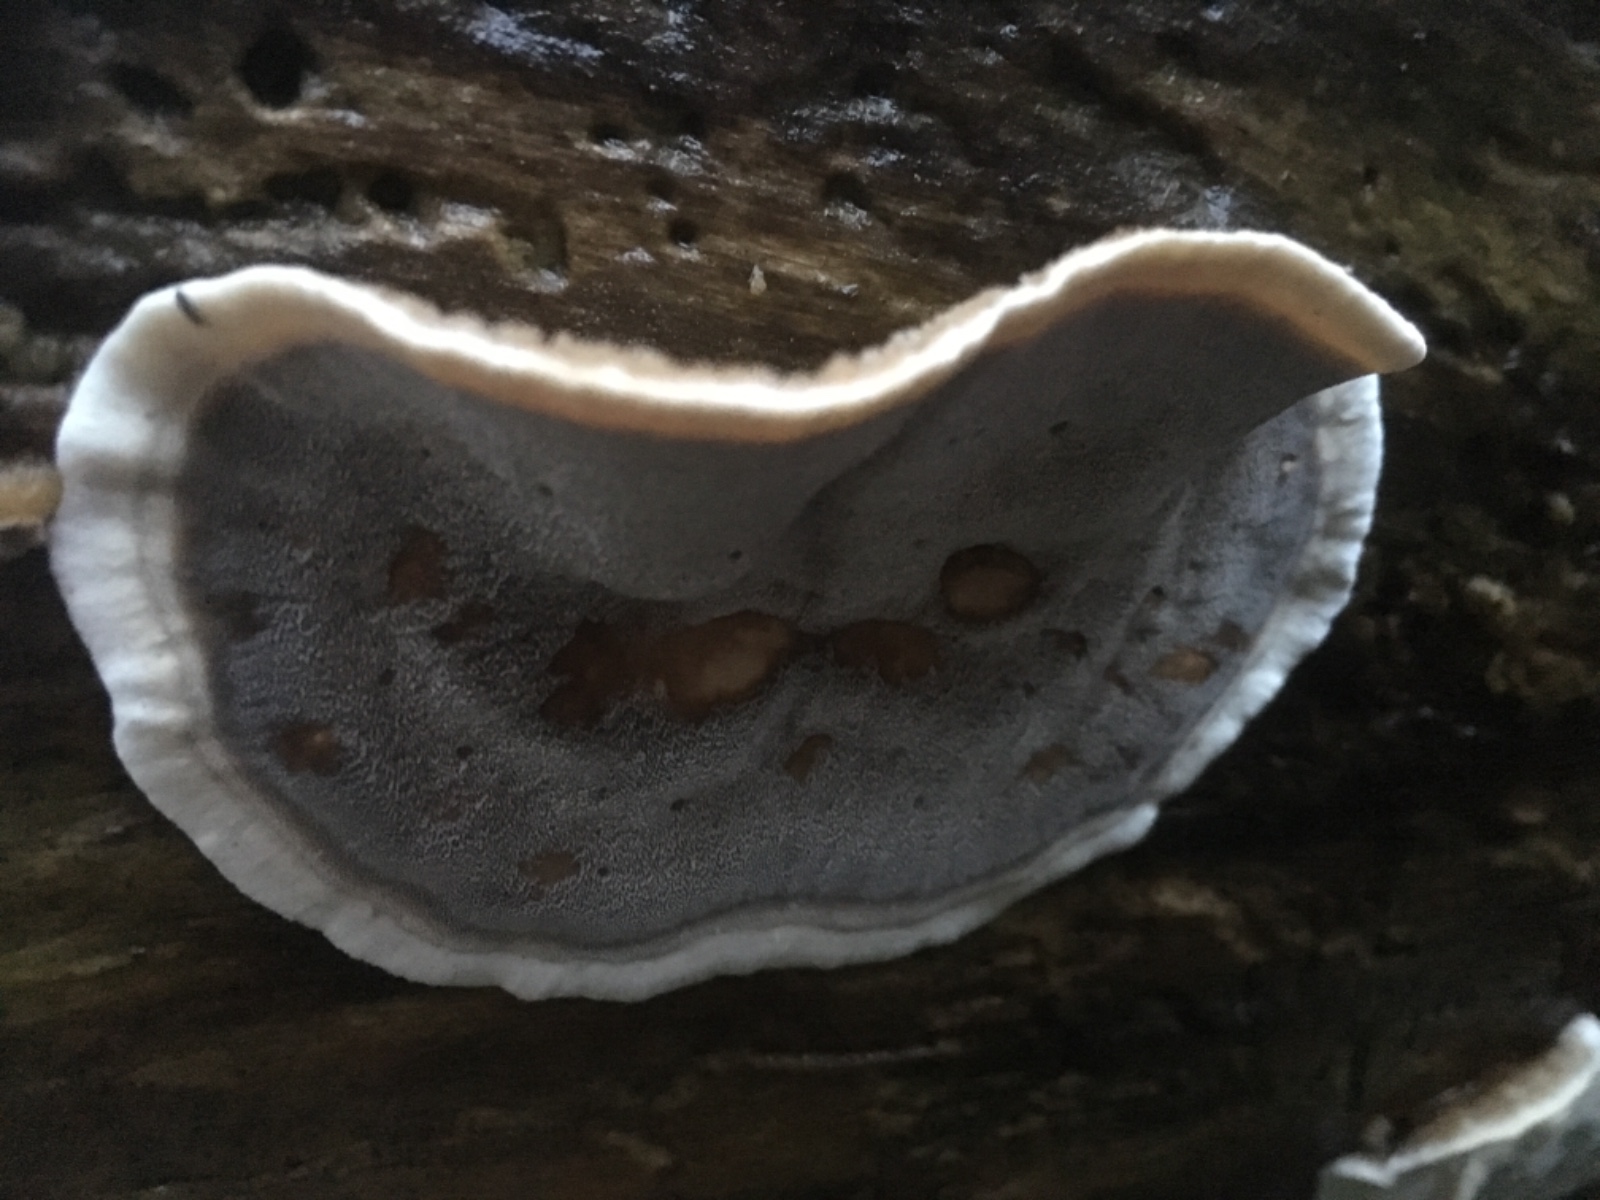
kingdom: Fungi
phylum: Basidiomycota
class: Agaricomycetes
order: Polyporales
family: Phanerochaetaceae
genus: Bjerkandera
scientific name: Bjerkandera adusta
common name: sveden sodporesvamp
